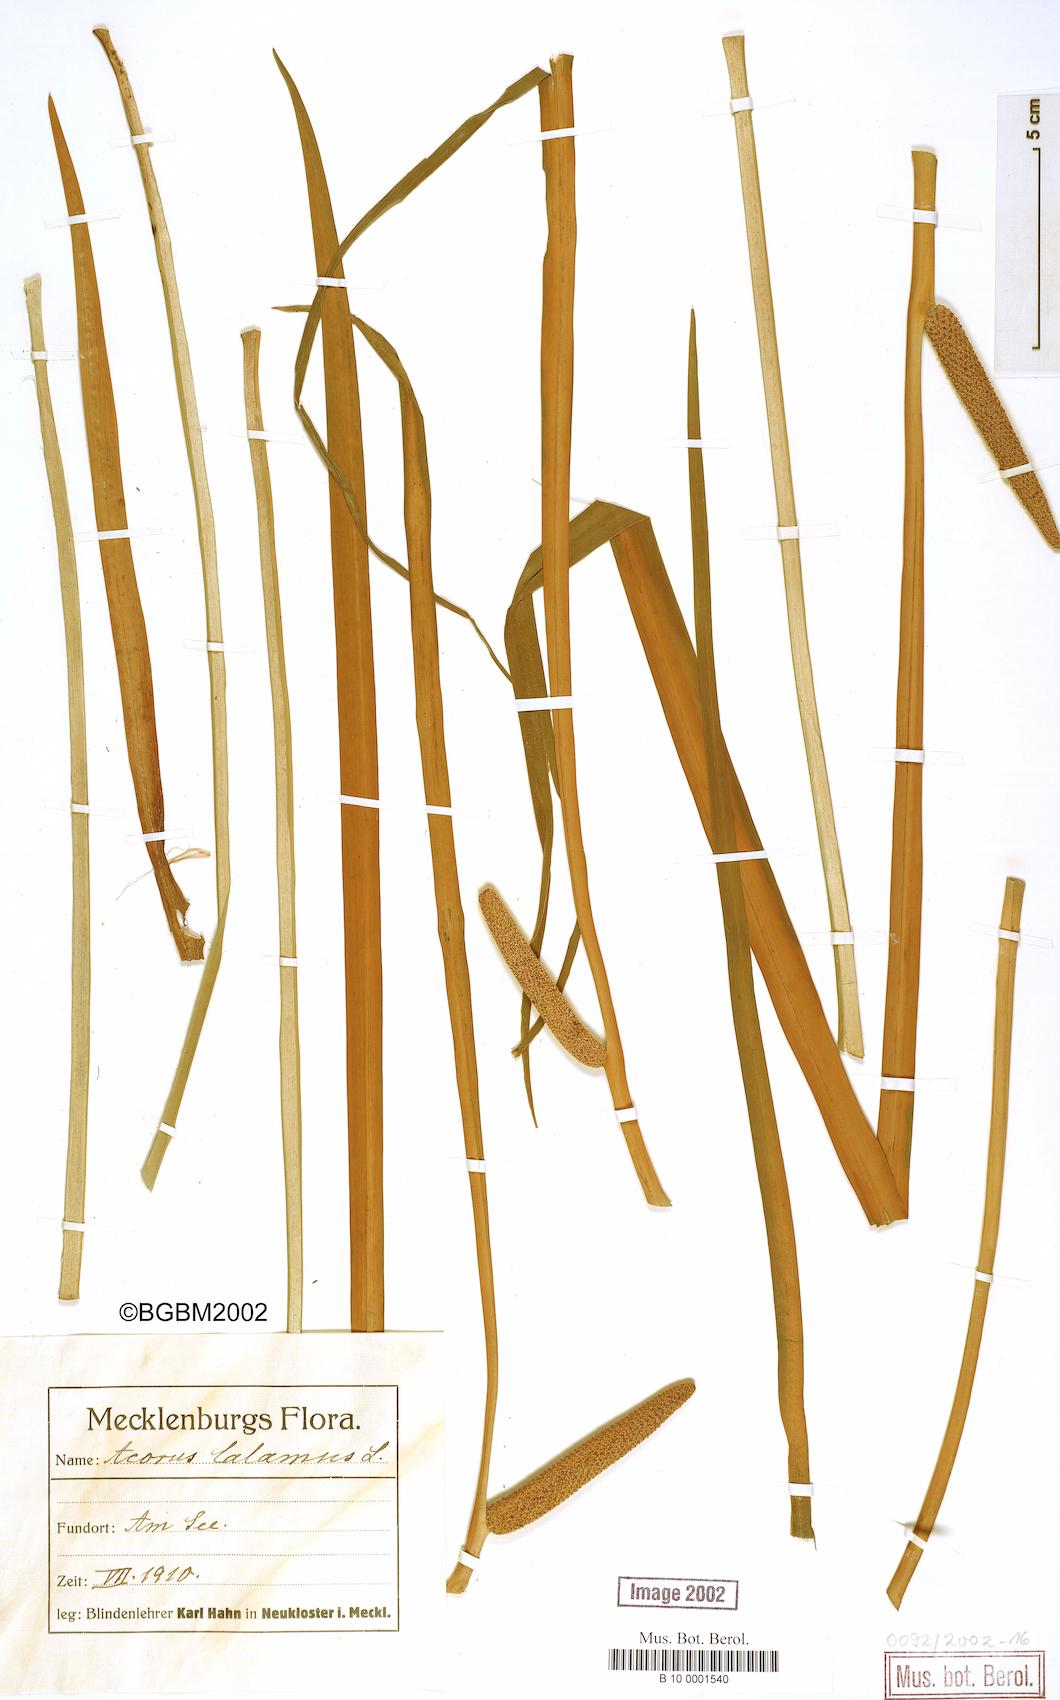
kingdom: Plantae
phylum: Tracheophyta
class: Liliopsida
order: Acorales
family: Acoraceae
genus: Acorus
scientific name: Acorus calamus
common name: Sweet-flag
